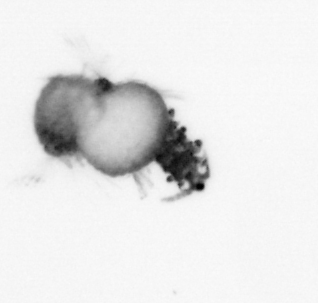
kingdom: Animalia
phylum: Annelida
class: Polychaeta
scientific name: Polychaeta
